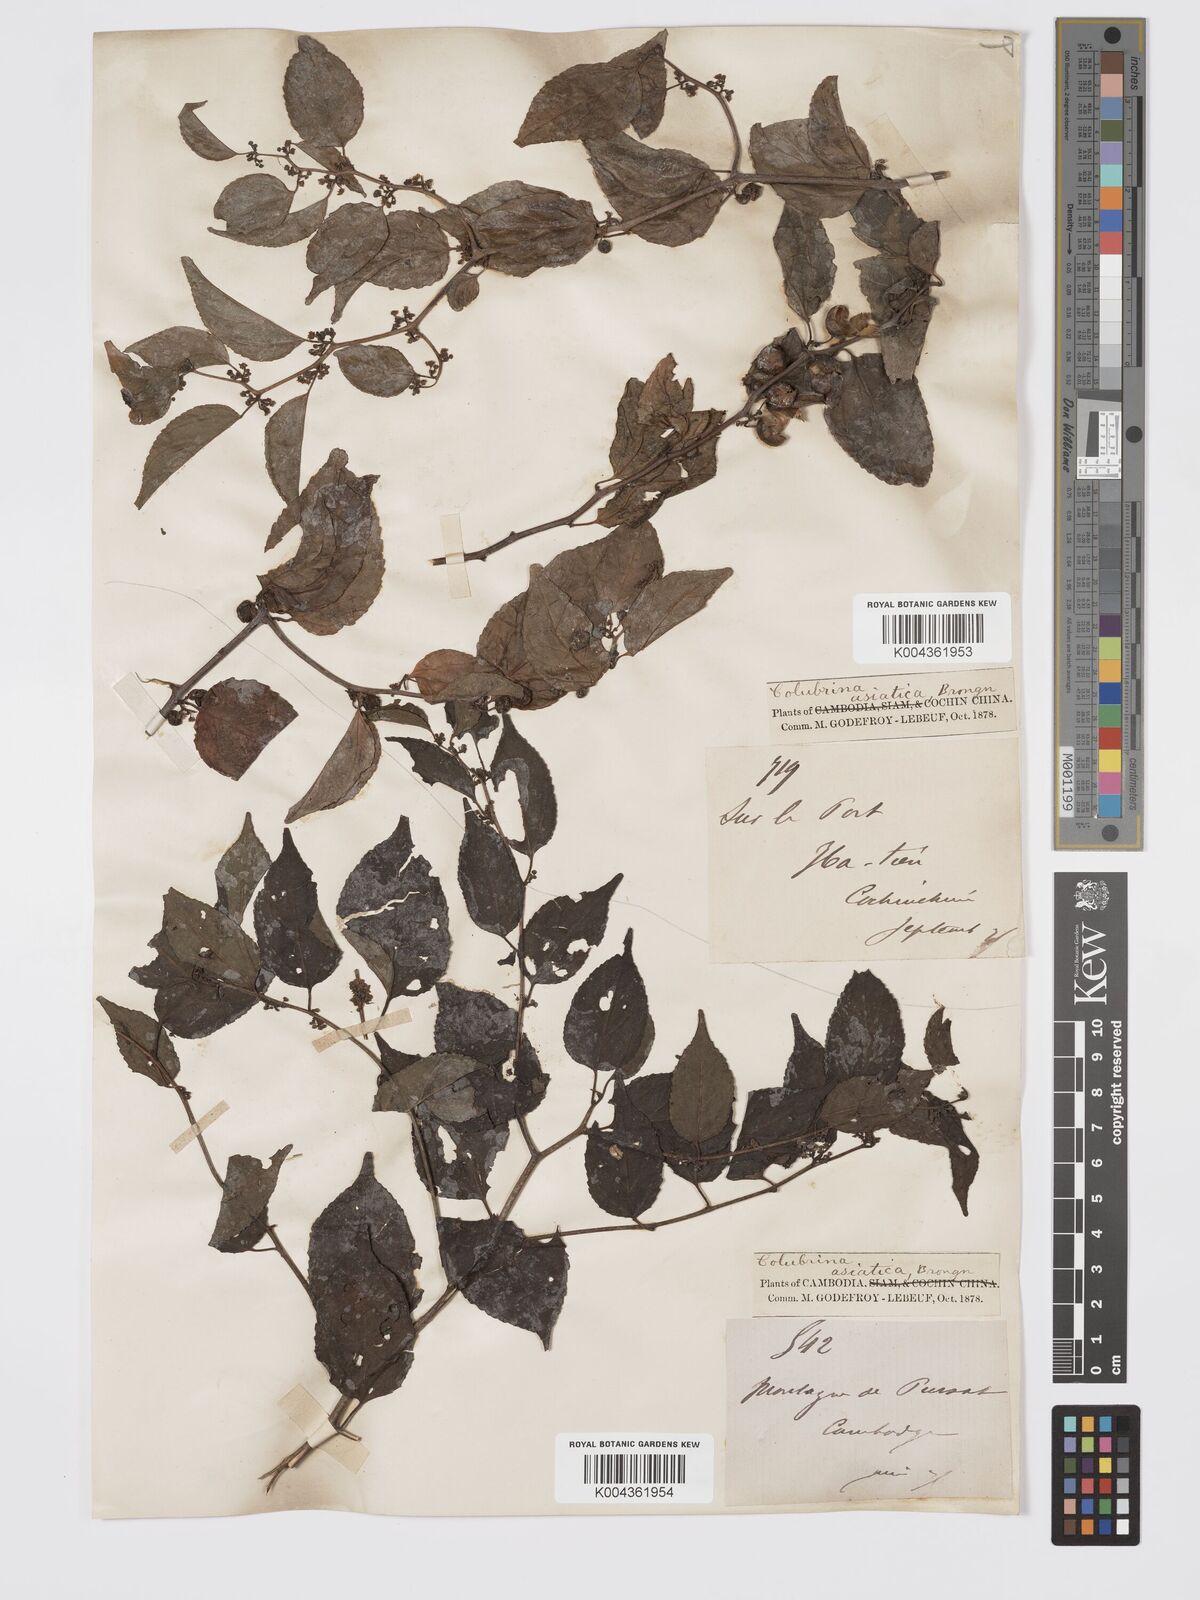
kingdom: Plantae
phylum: Tracheophyta
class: Magnoliopsida
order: Rosales
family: Rhamnaceae
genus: Colubrina
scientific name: Colubrina asiatica
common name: Asian nakedwood
